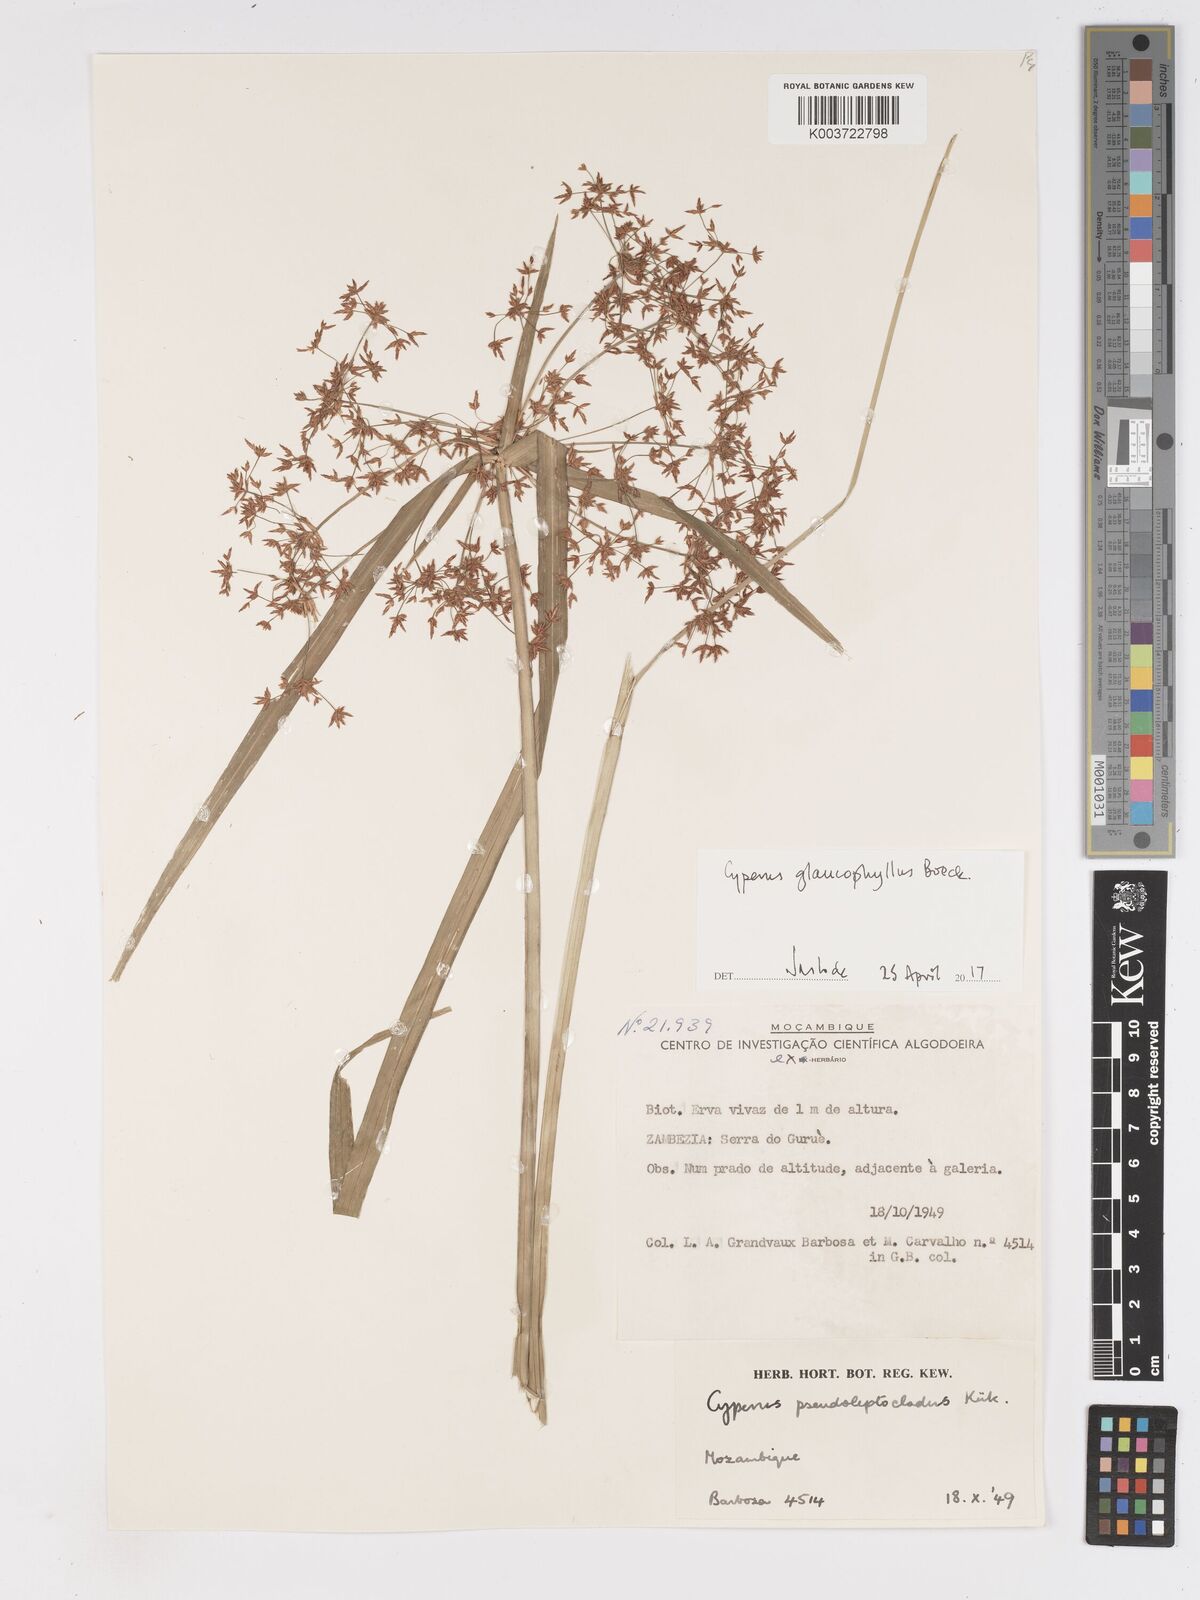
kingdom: Plantae
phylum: Tracheophyta
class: Liliopsida
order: Poales
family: Cyperaceae
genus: Cyperus
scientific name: Cyperus glaucophyllus
